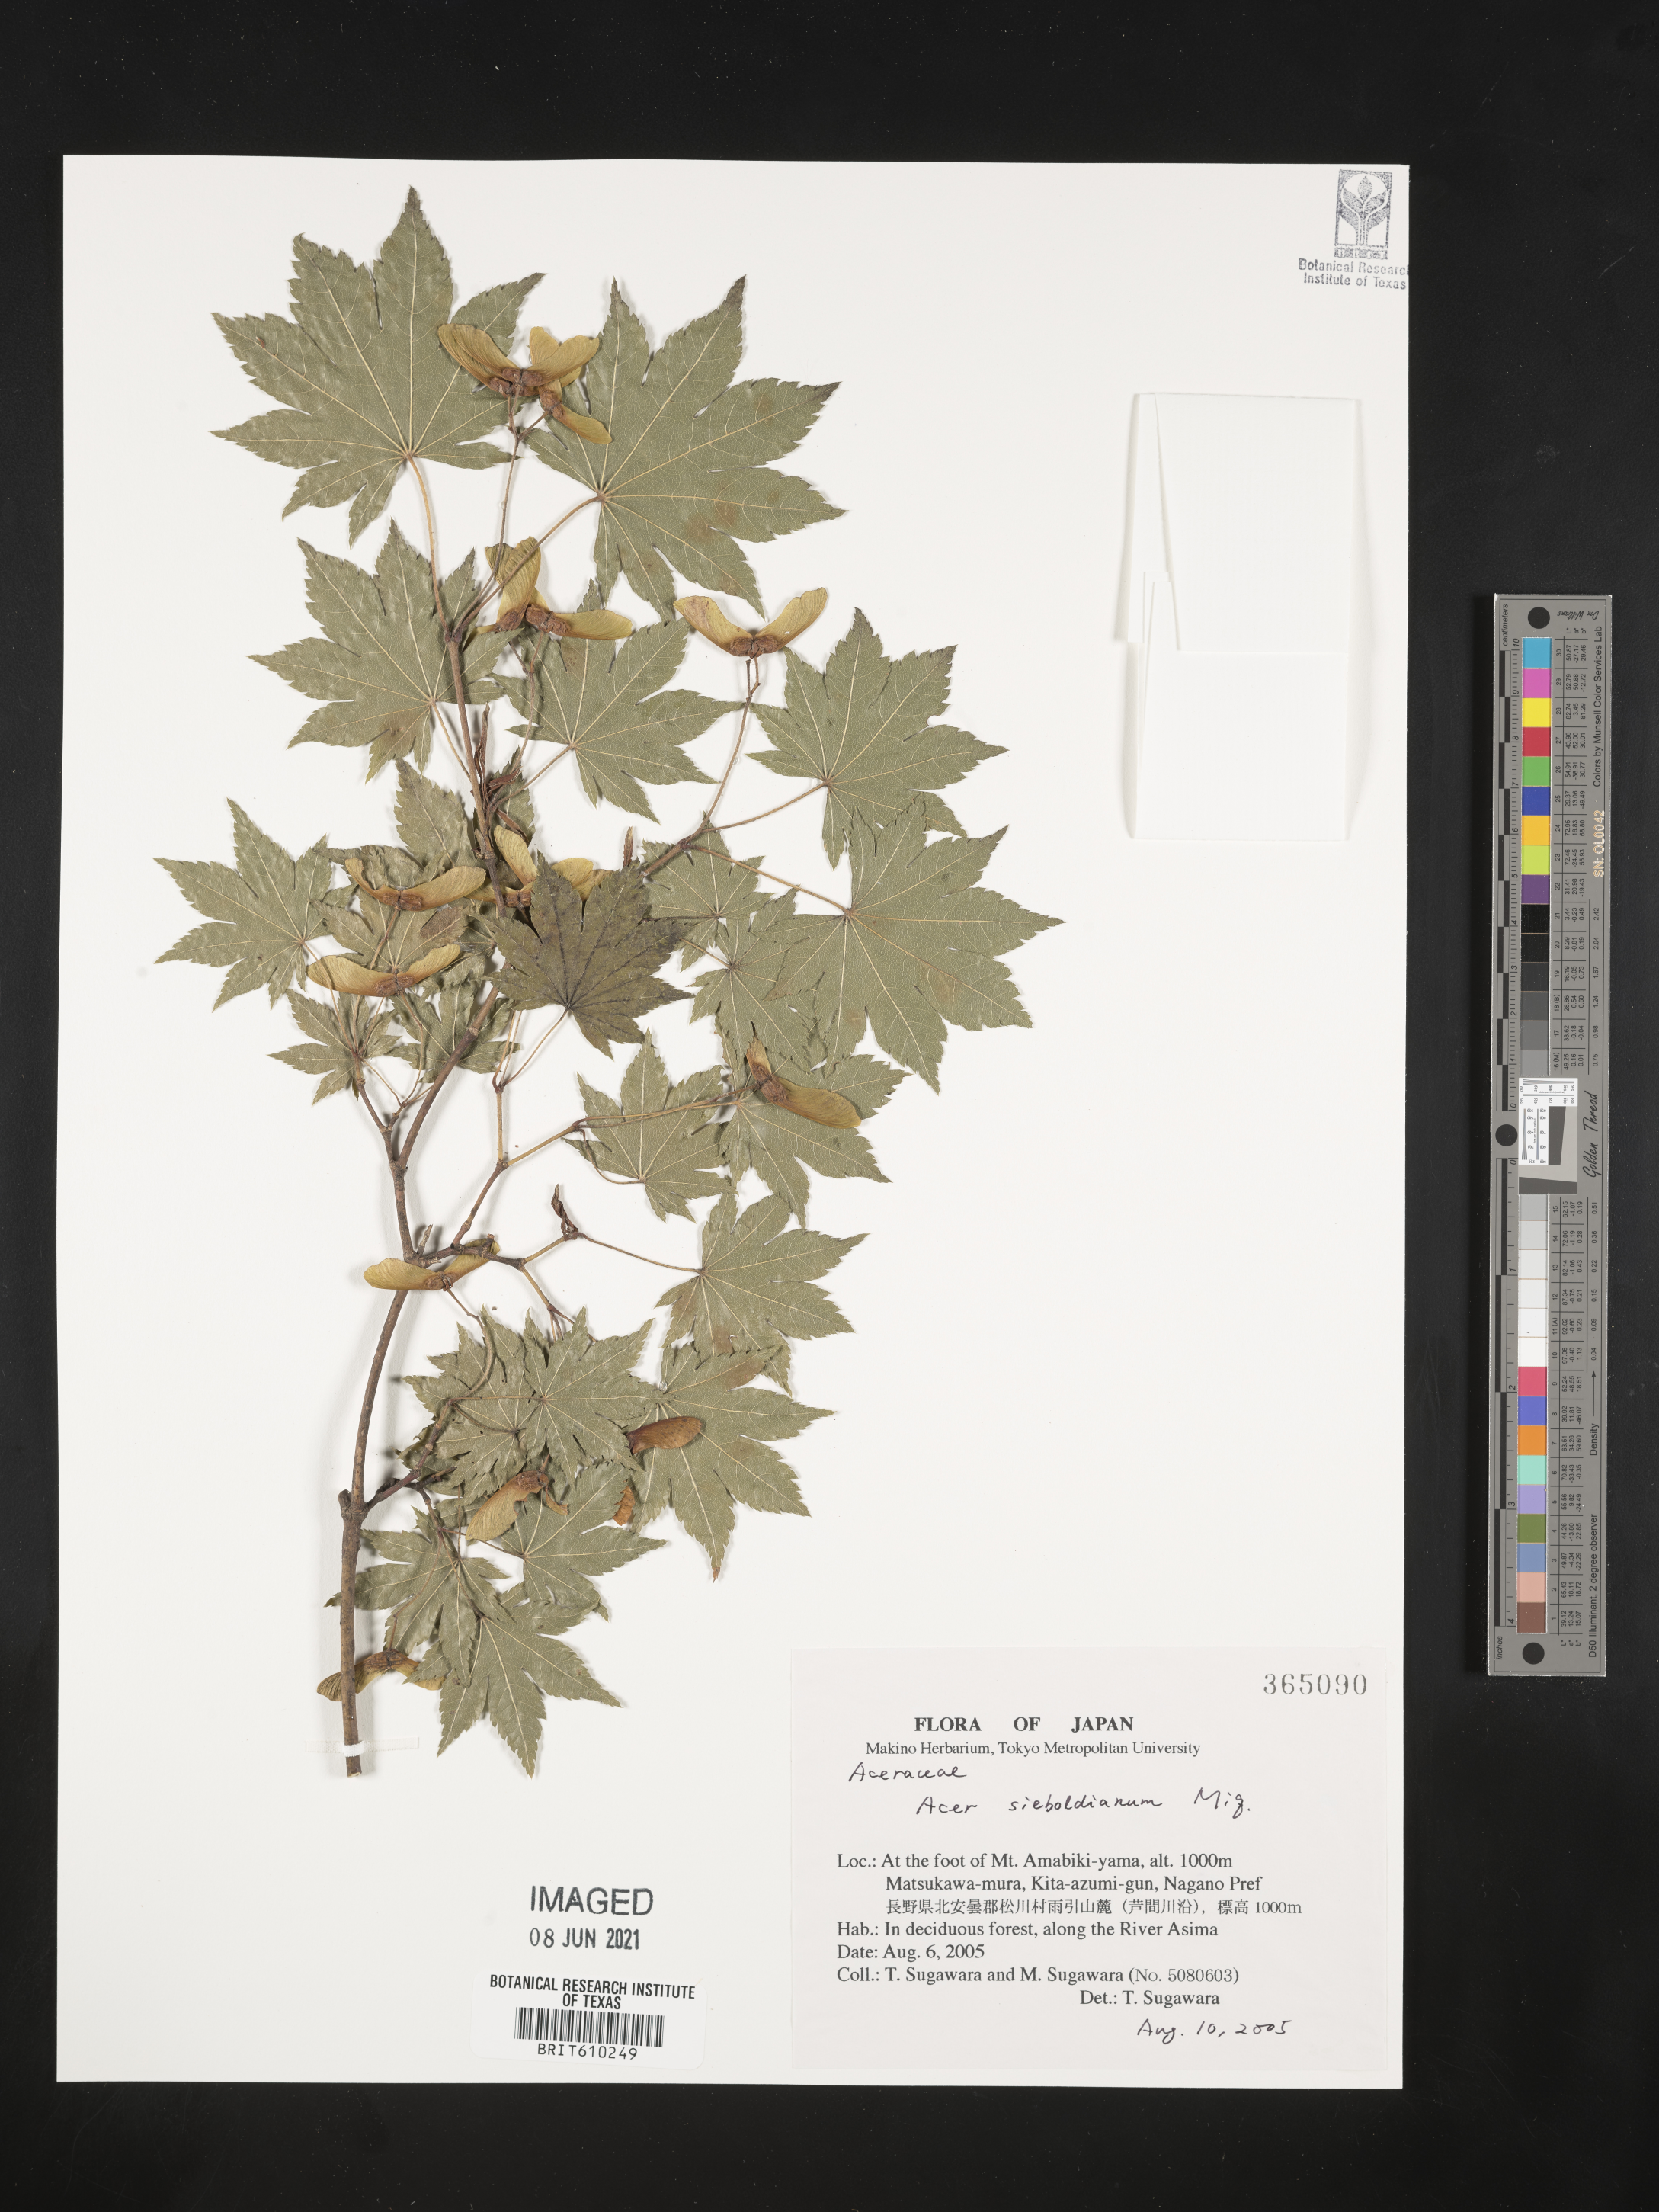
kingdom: Plantae
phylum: Tracheophyta
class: Magnoliopsida
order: Sapindales
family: Sapindaceae
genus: Acer
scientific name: Acer sieboldianum
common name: Siebold's maple
